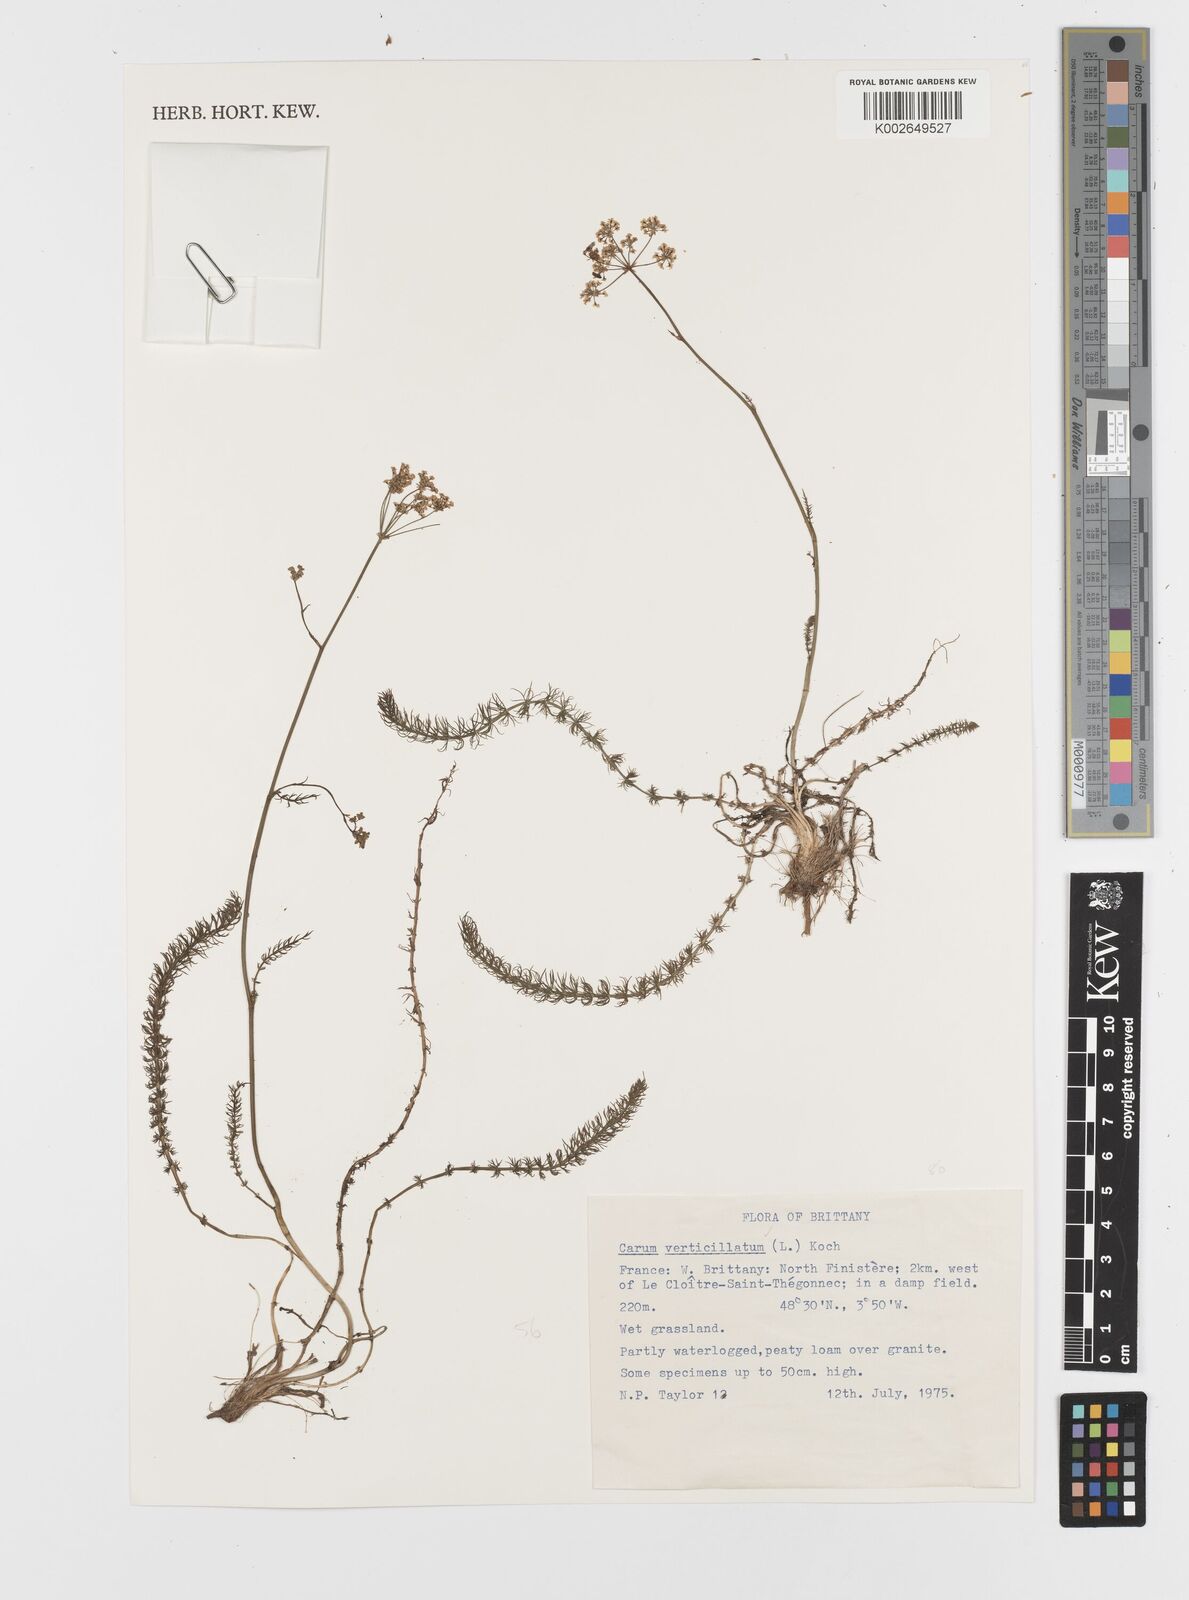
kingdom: Plantae
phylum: Tracheophyta
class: Magnoliopsida
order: Apiales
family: Apiaceae
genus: Trocdaris
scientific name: Trocdaris verticillatum
